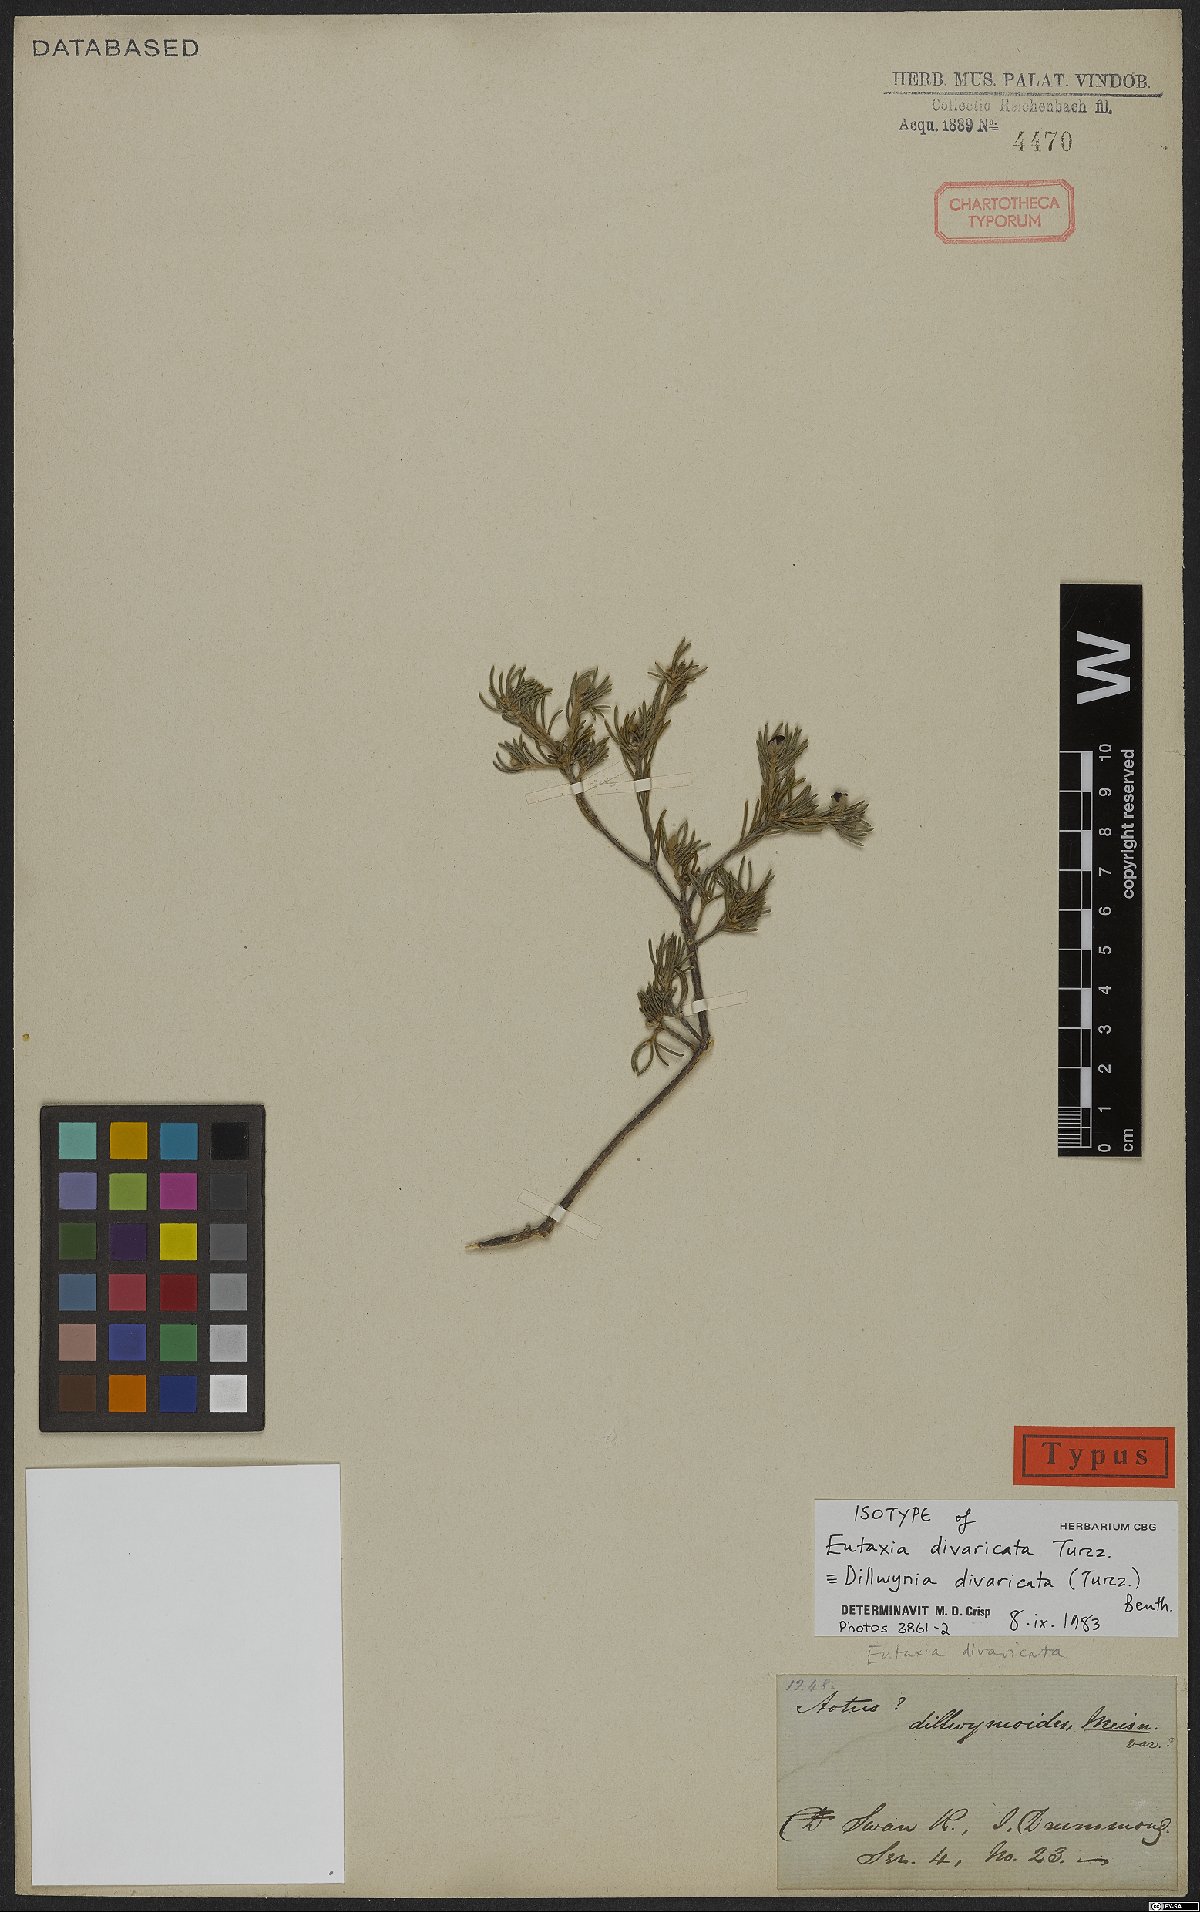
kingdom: Plantae
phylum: Tracheophyta
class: Magnoliopsida
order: Fabales
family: Fabaceae
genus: Dillwynia
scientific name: Dillwynia divaricata
